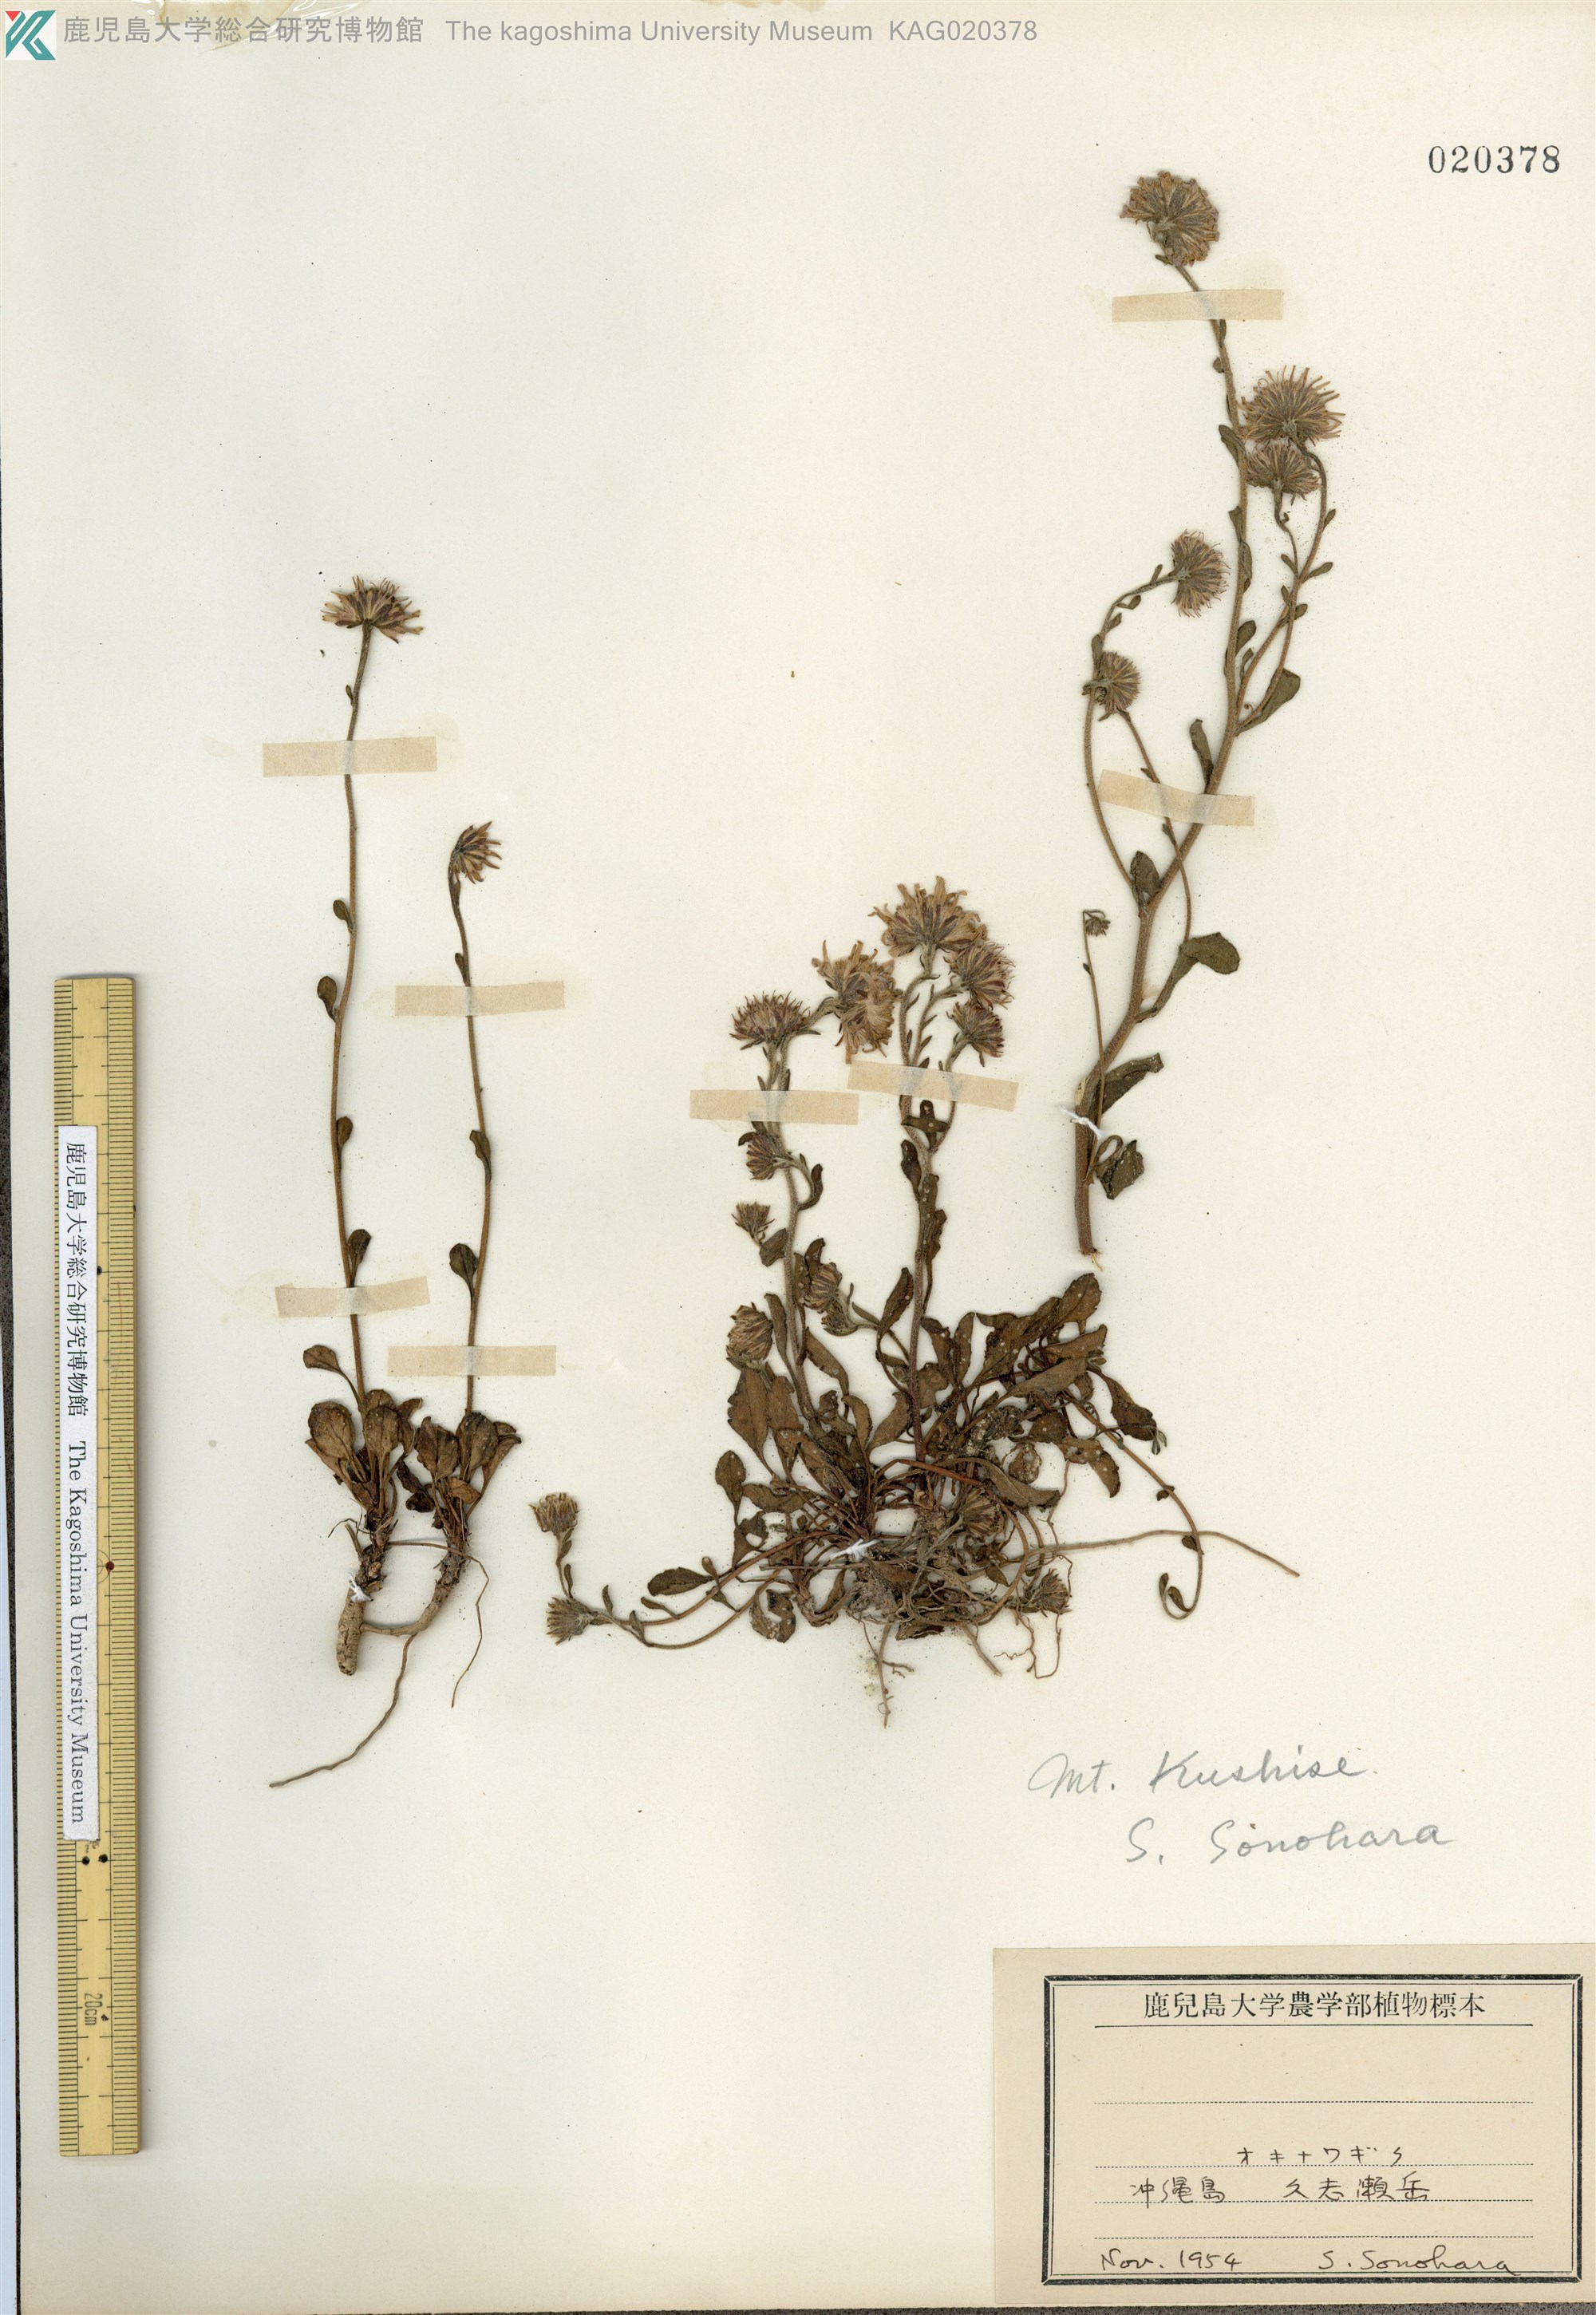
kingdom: Plantae
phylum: Tracheophyta
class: Magnoliopsida
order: Asterales
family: Asteraceae
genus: Aster
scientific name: Aster miyagii
